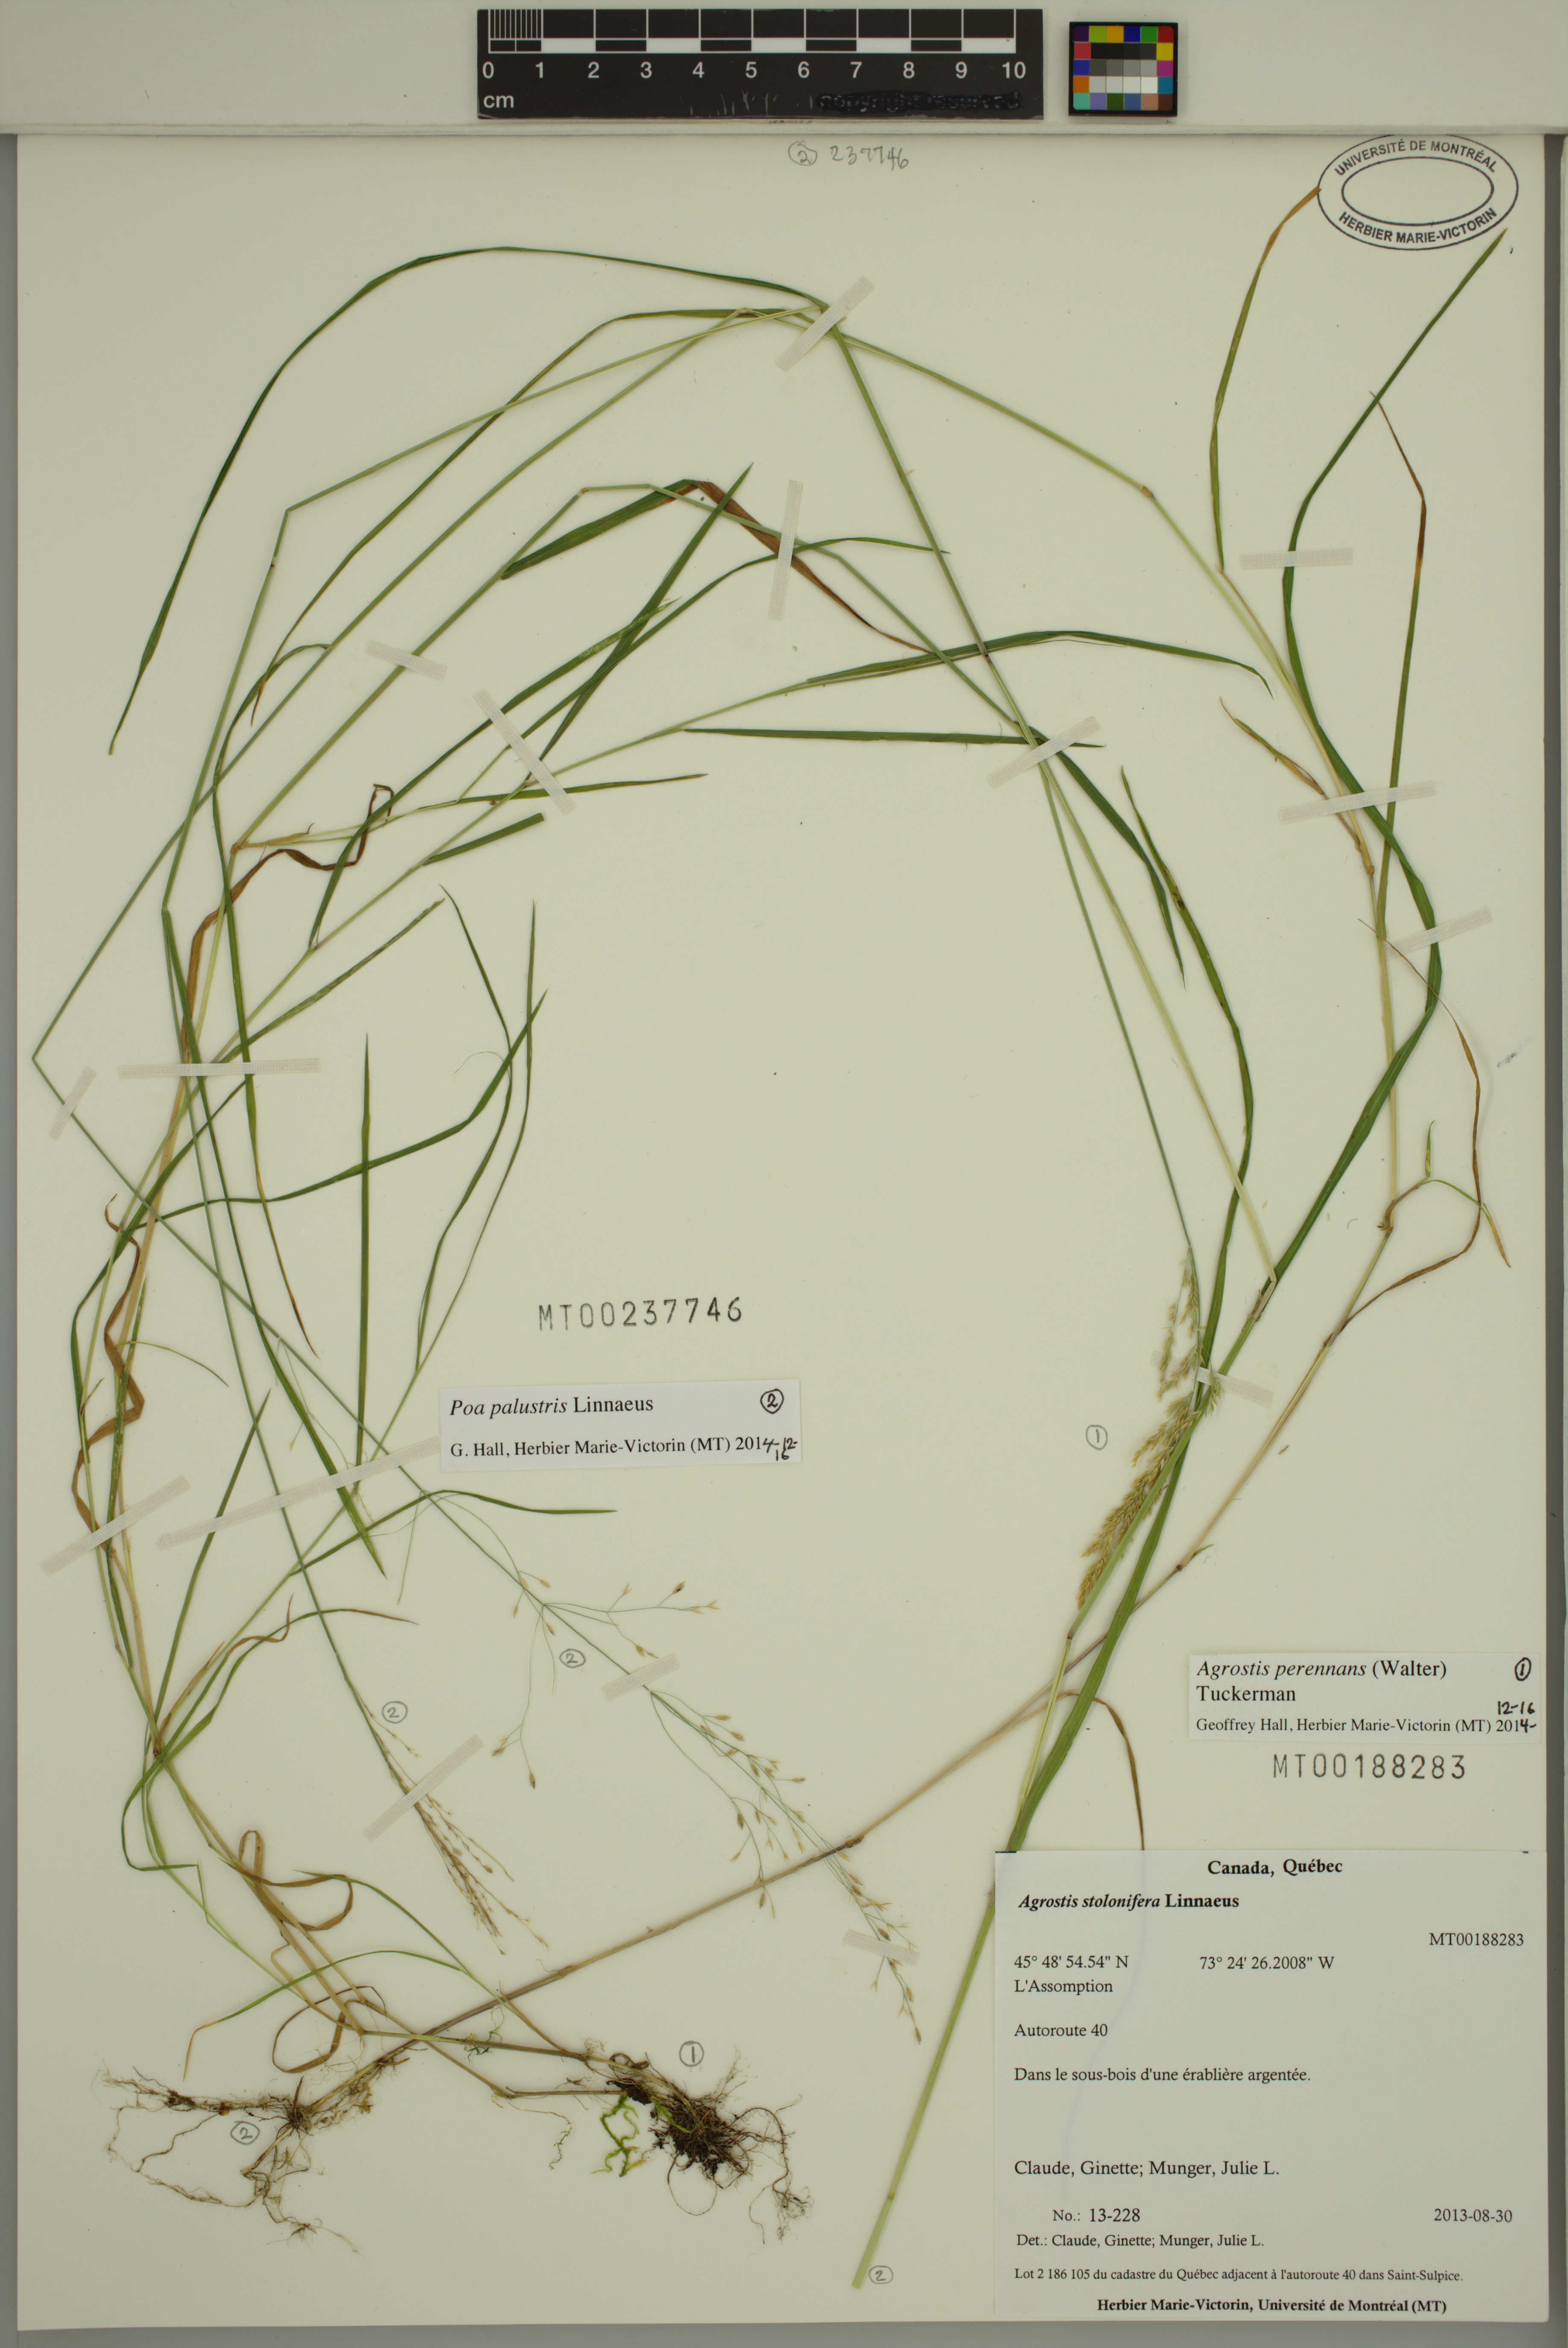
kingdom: Plantae
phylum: Tracheophyta
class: Liliopsida
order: Poales
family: Poaceae
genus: Agrostis
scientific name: Agrostis perennans
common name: Autumn bent
